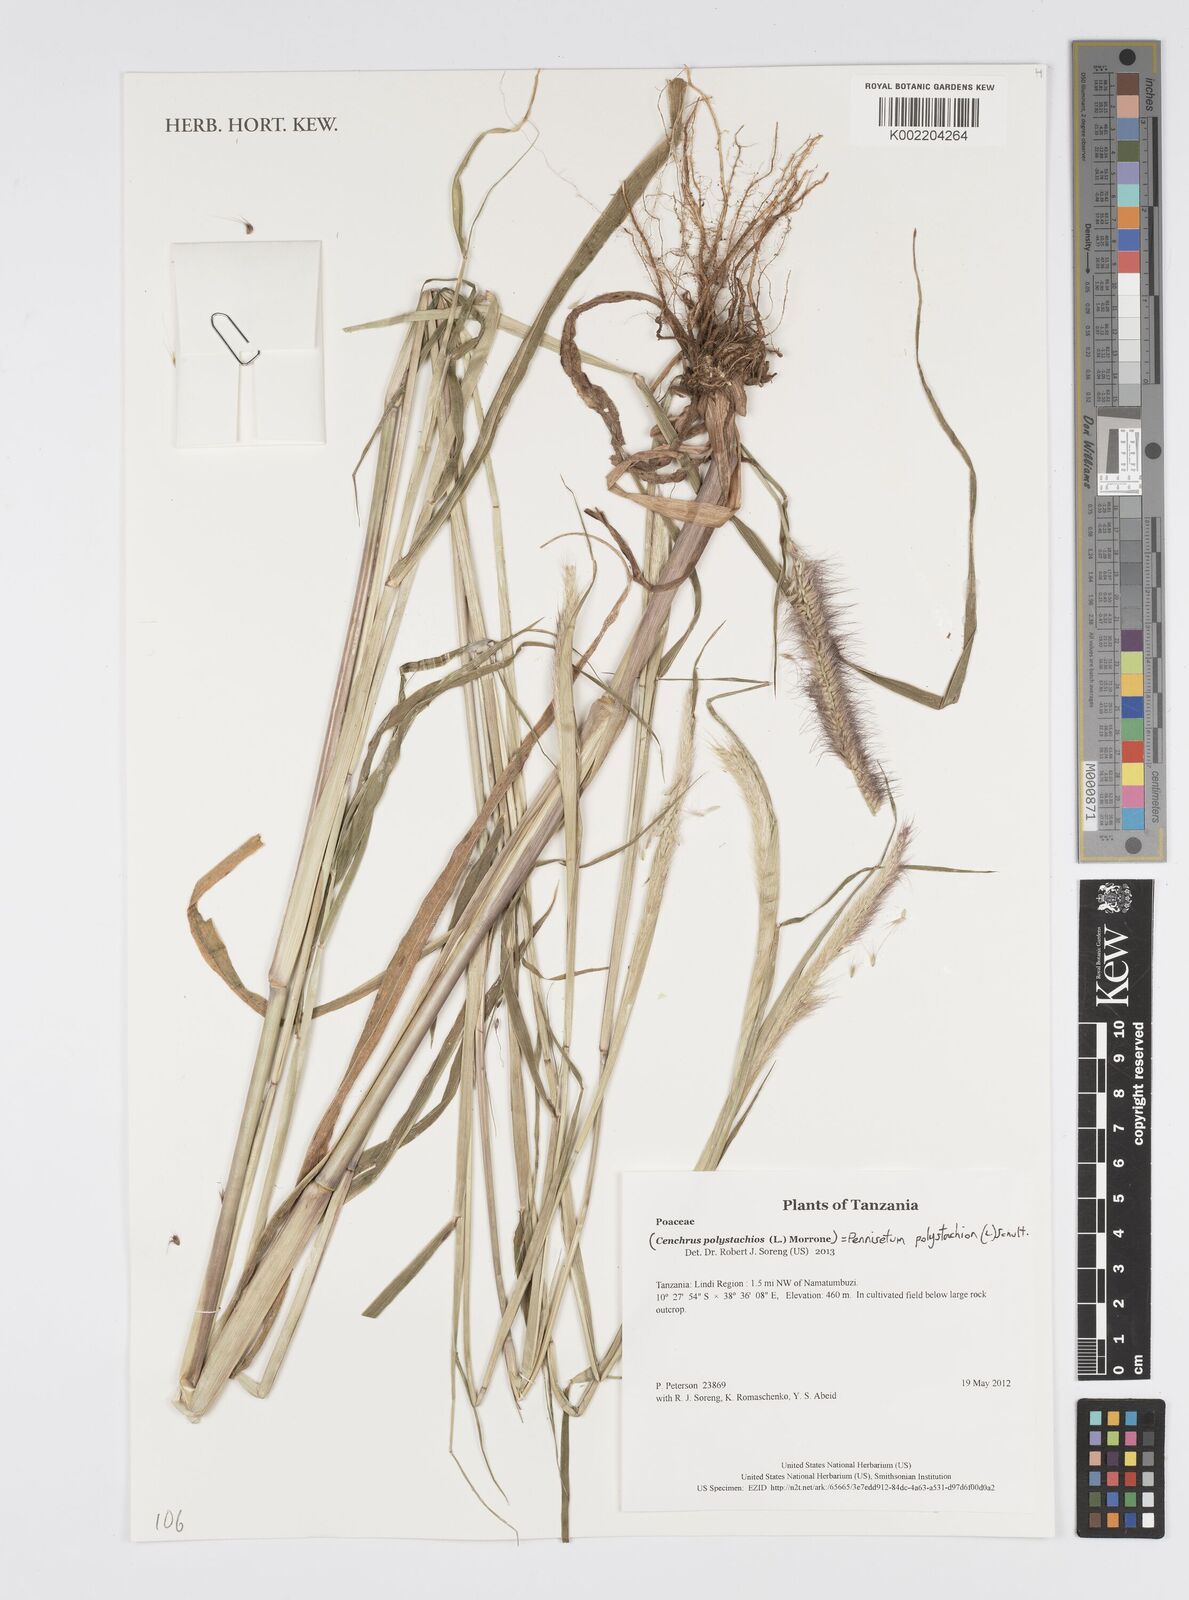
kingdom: Plantae
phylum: Tracheophyta
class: Liliopsida
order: Poales
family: Poaceae
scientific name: Poaceae
